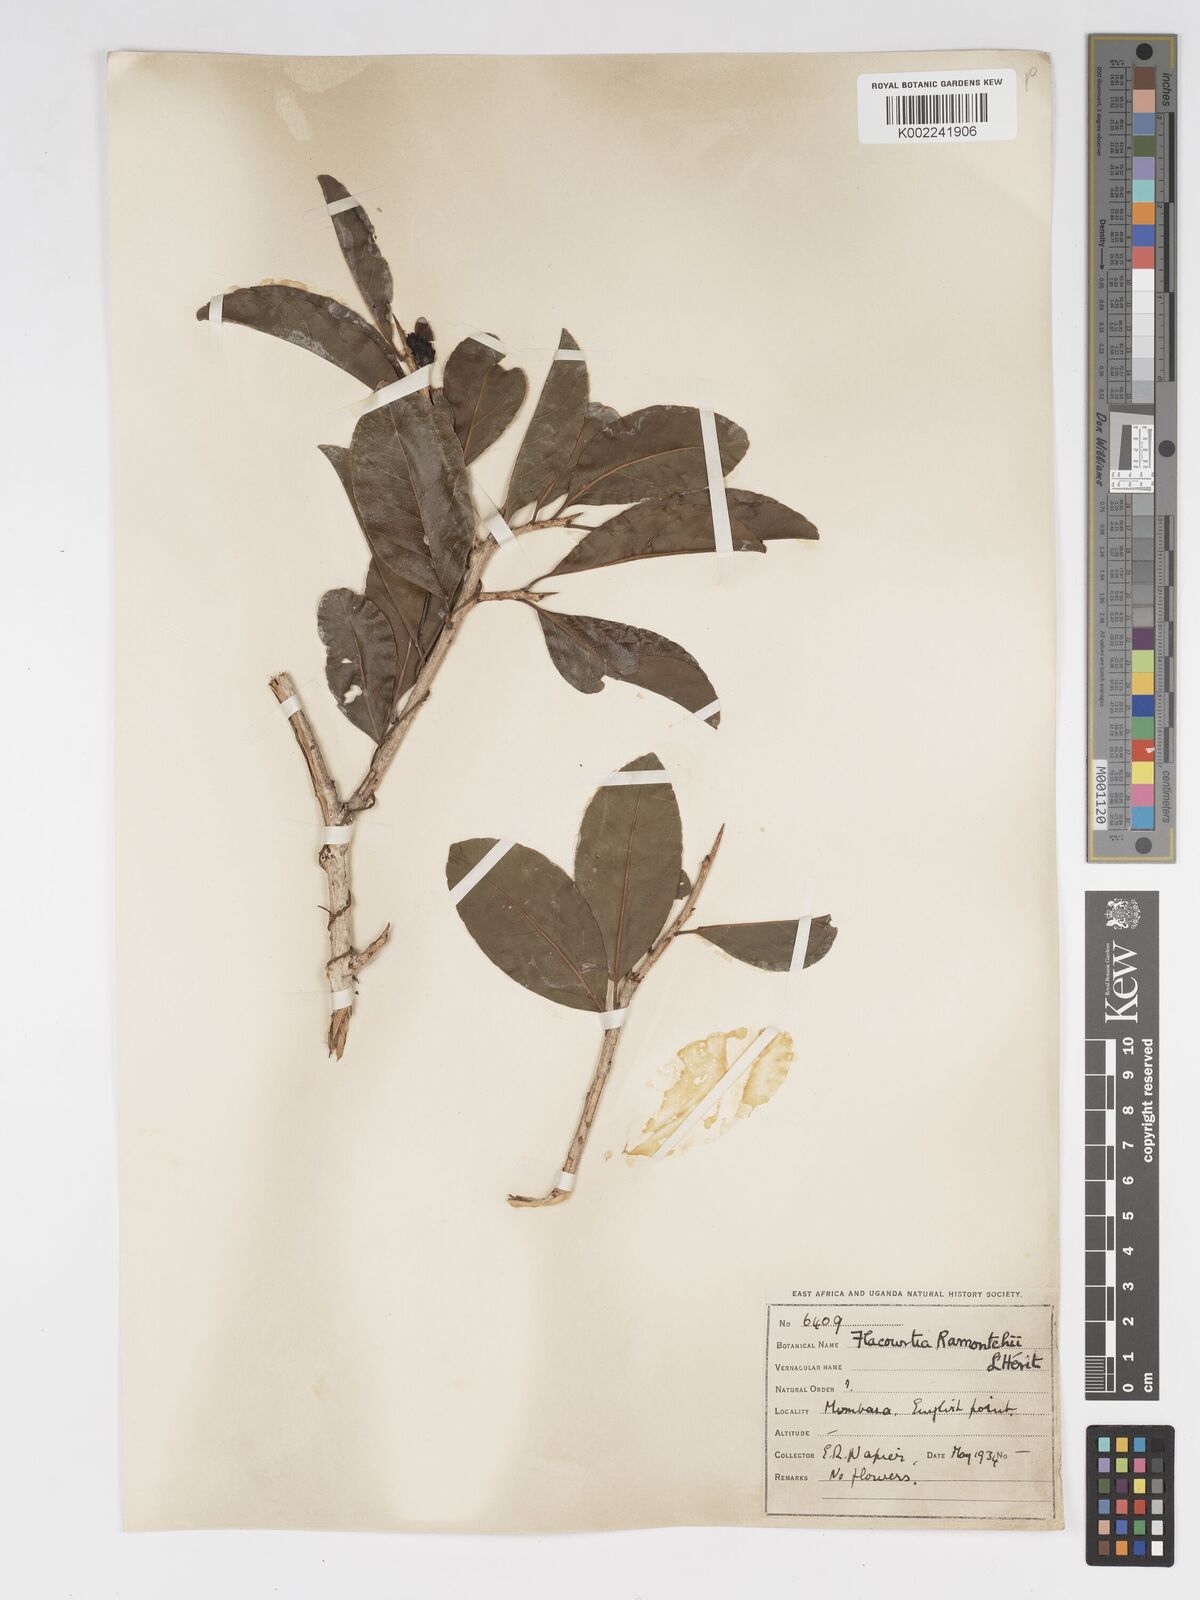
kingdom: Plantae
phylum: Tracheophyta
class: Magnoliopsida
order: Malpighiales
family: Salicaceae
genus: Flacourtia
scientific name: Flacourtia indica
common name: Governor's plum
